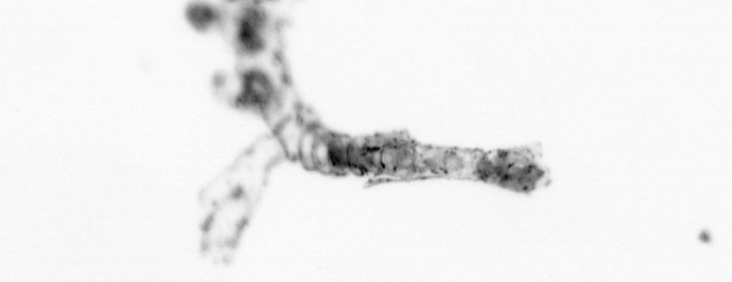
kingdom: Animalia
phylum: Cnidaria
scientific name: Cnidaria
